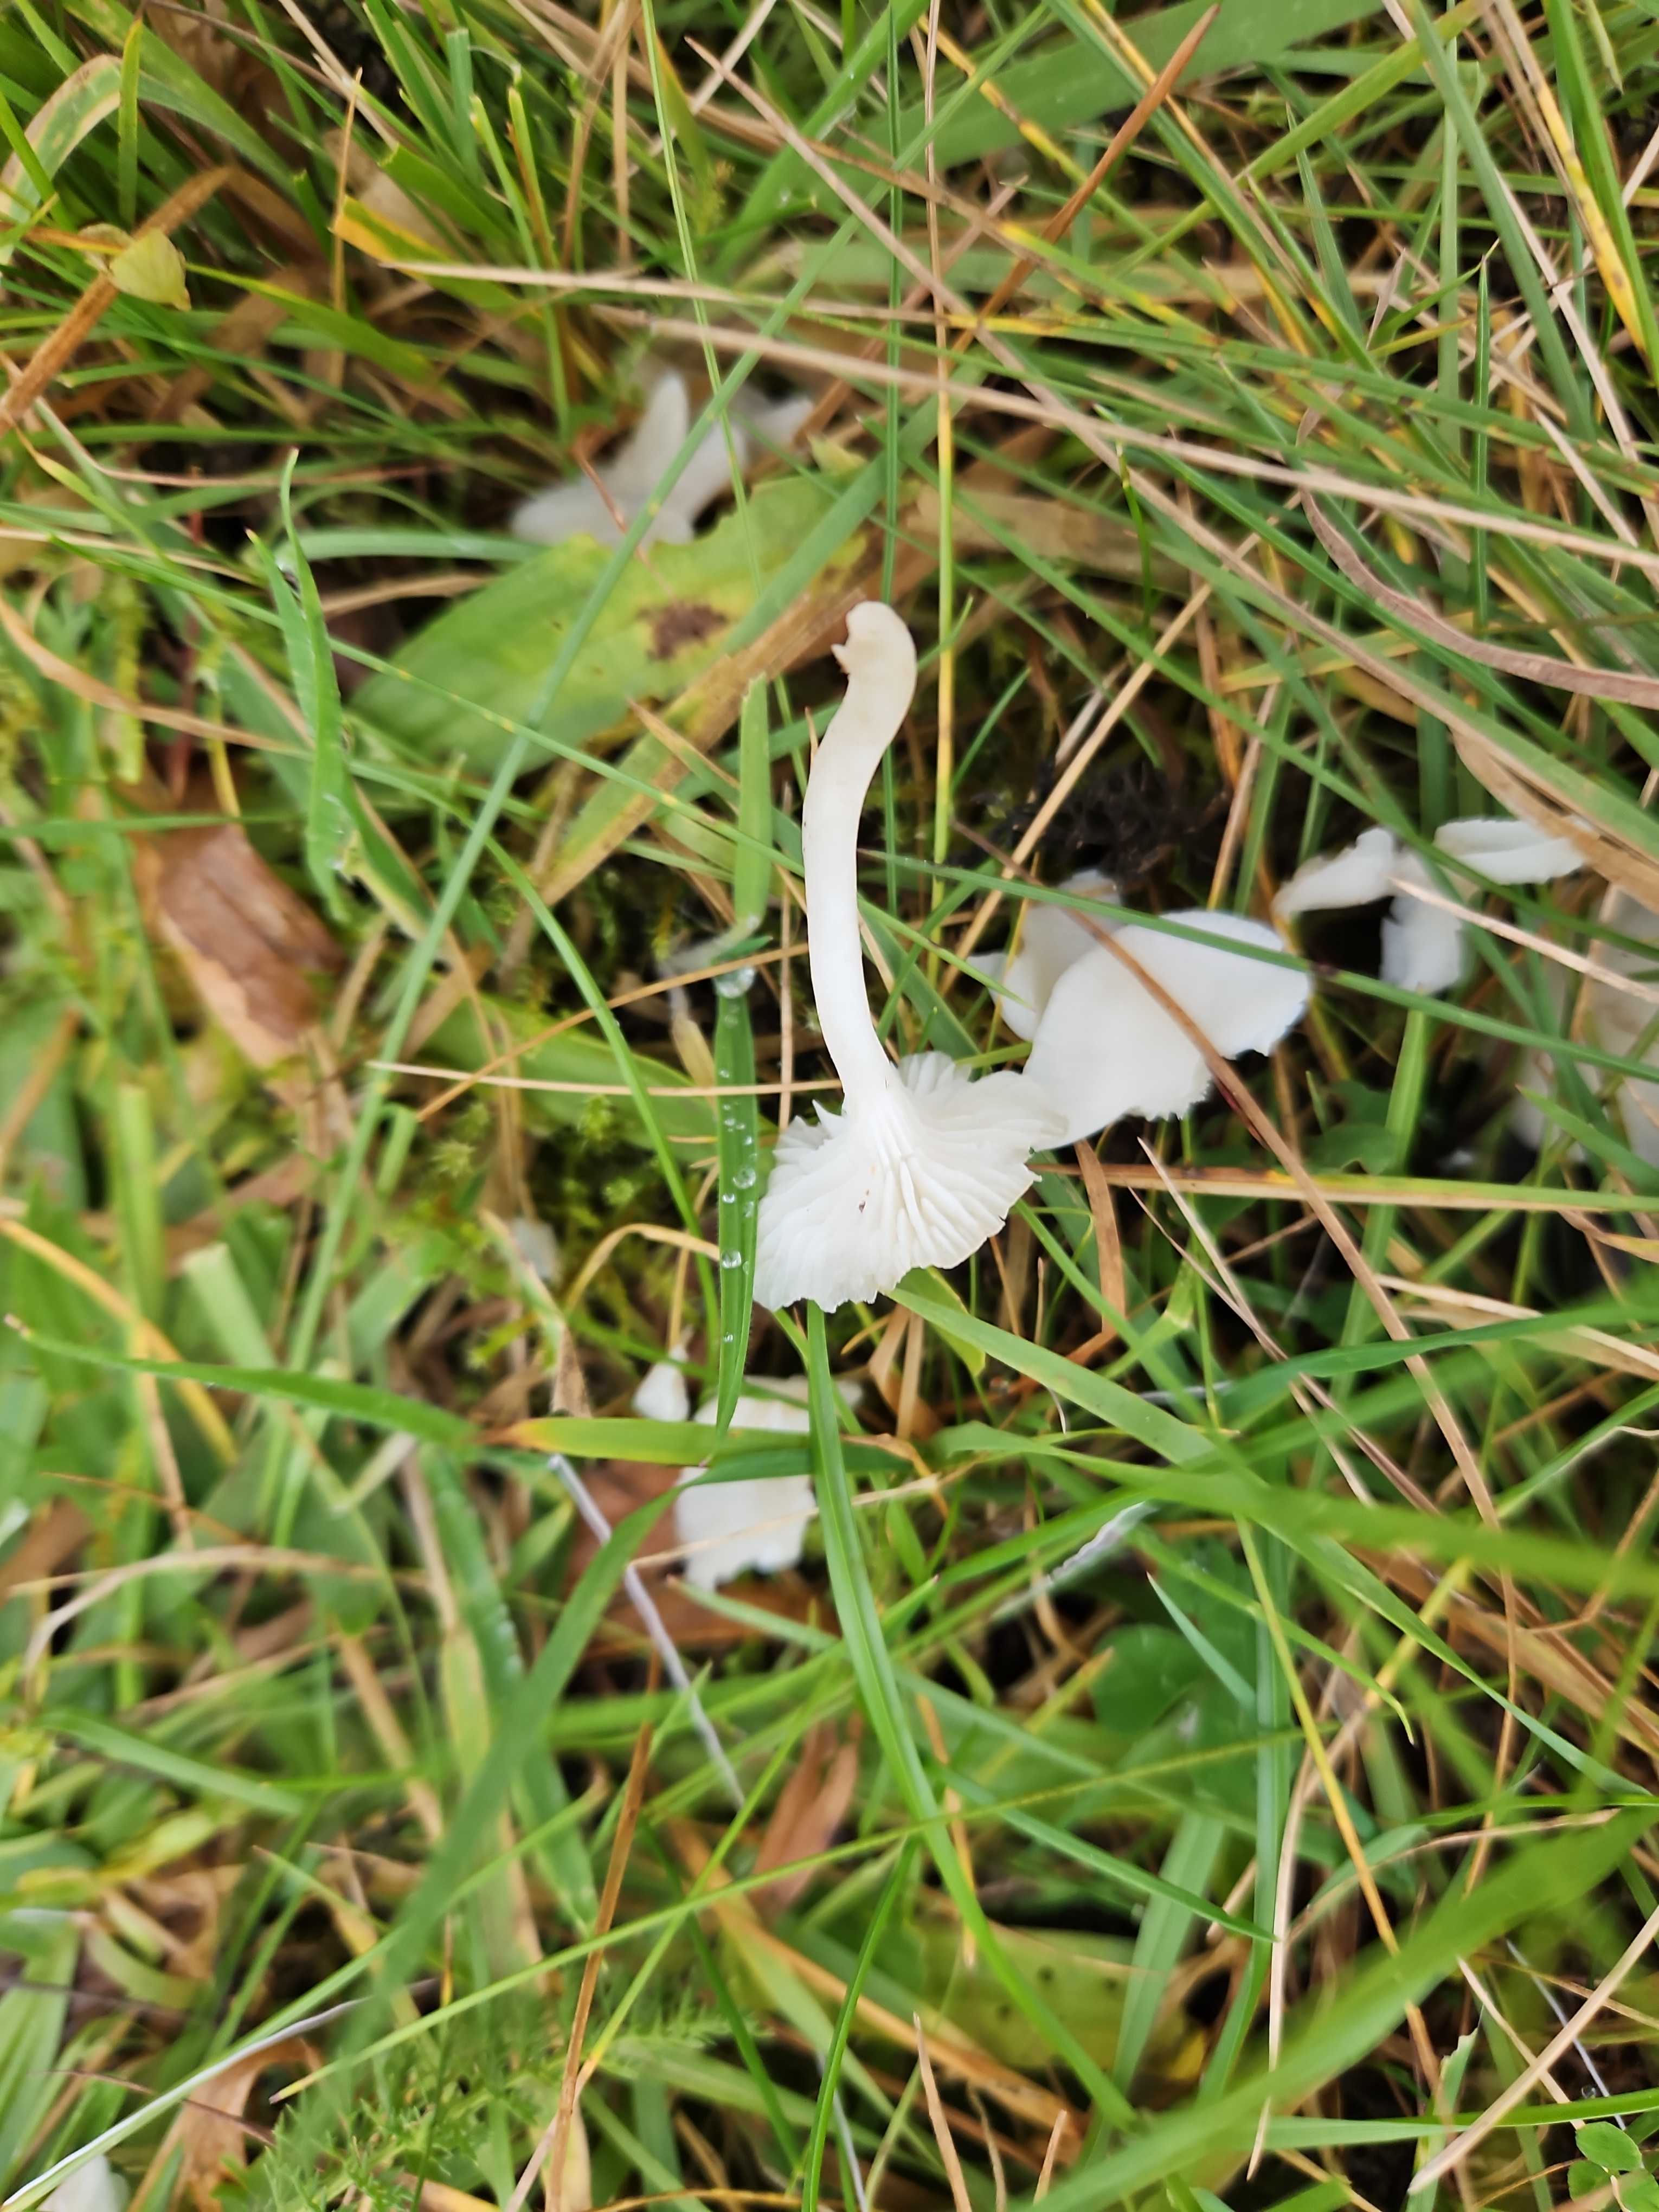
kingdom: Fungi
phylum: Basidiomycota
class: Agaricomycetes
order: Agaricales
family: Hygrophoraceae
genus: Cuphophyllus
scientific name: Cuphophyllus virgineus
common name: snehvid vokshat
